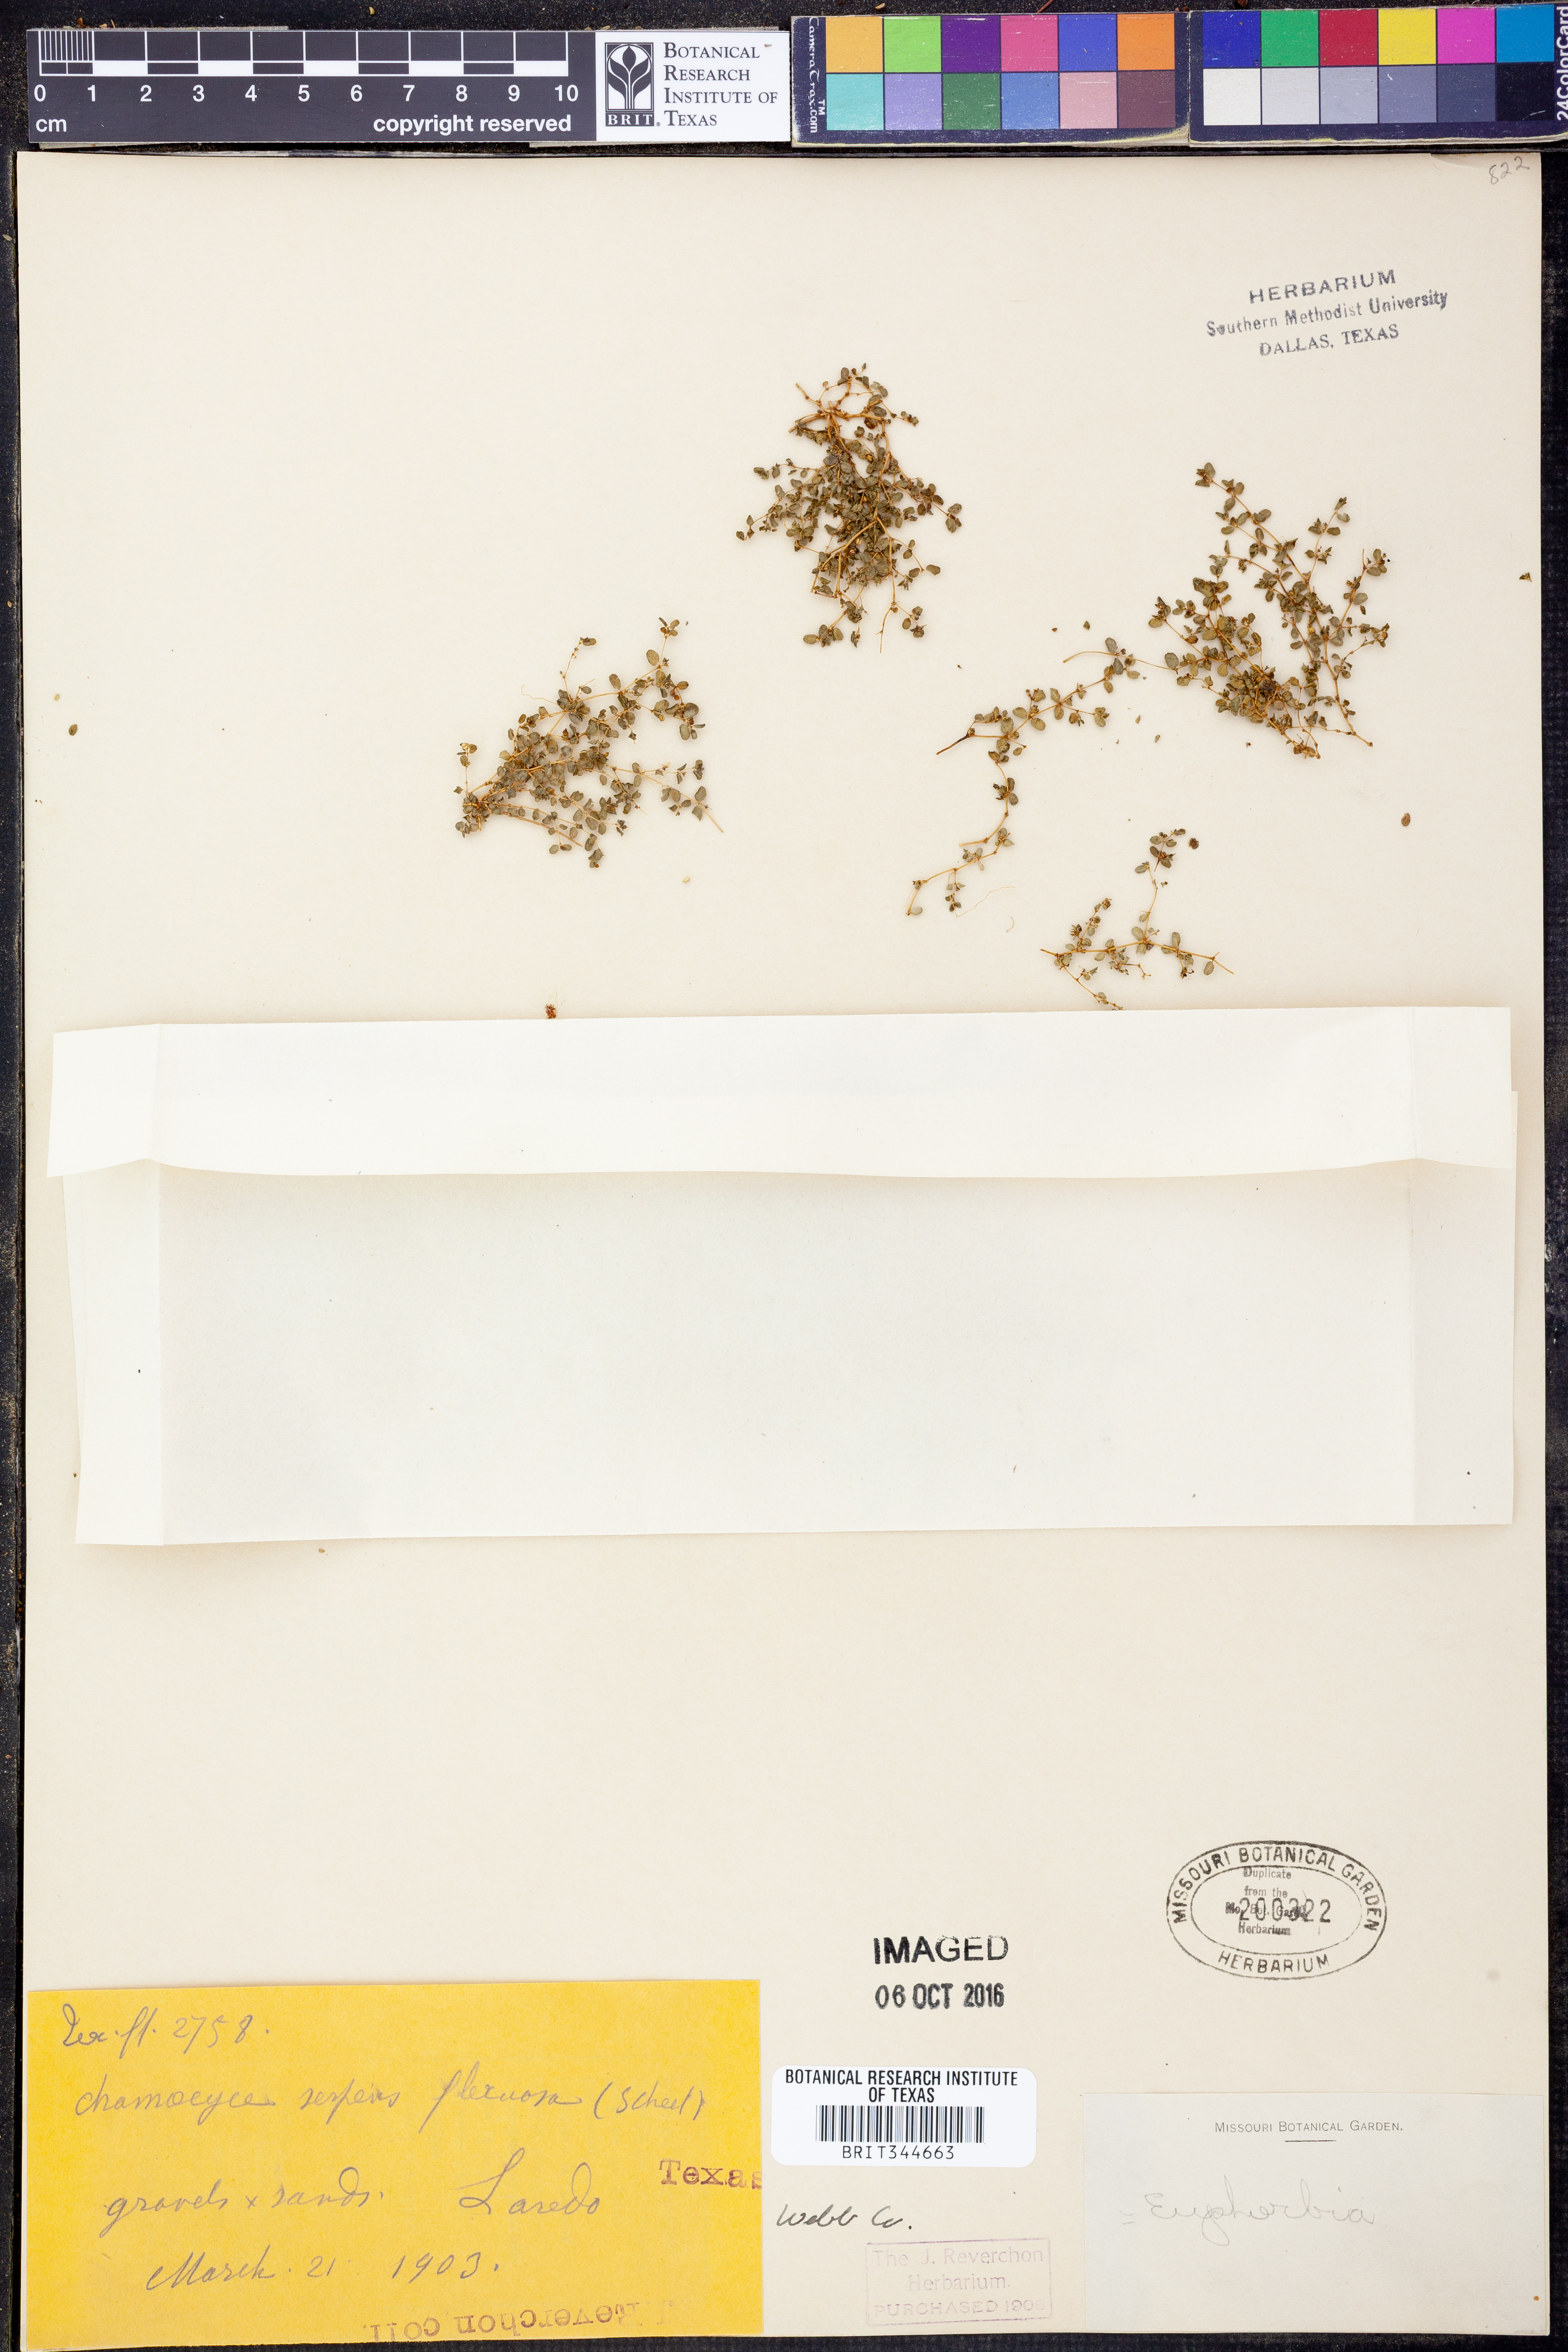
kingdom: Plantae
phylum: Tracheophyta
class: Magnoliopsida
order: Malpighiales
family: Euphorbiaceae
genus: Euphorbia
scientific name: Euphorbia serpens
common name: Matted sandmat
